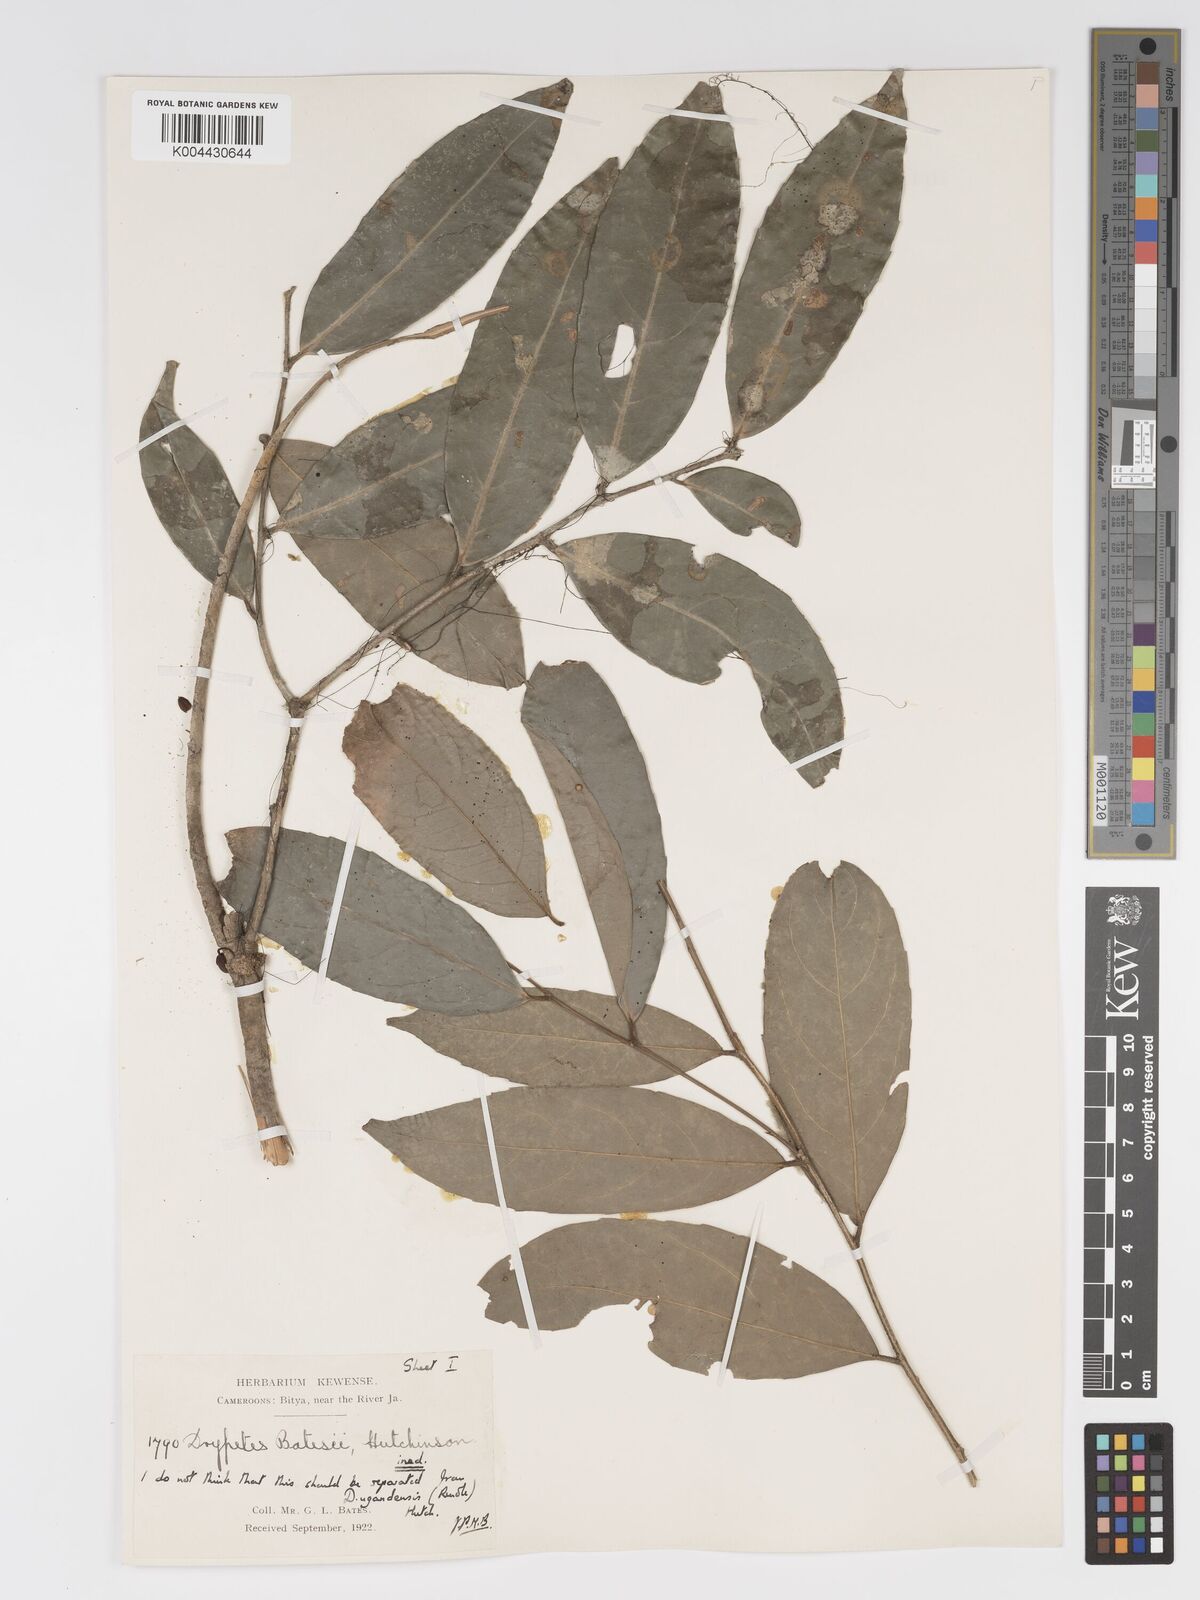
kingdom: Plantae
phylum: Tracheophyta
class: Magnoliopsida
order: Malpighiales
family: Putranjivaceae
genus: Drypetes
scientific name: Drypetes ugandensis
